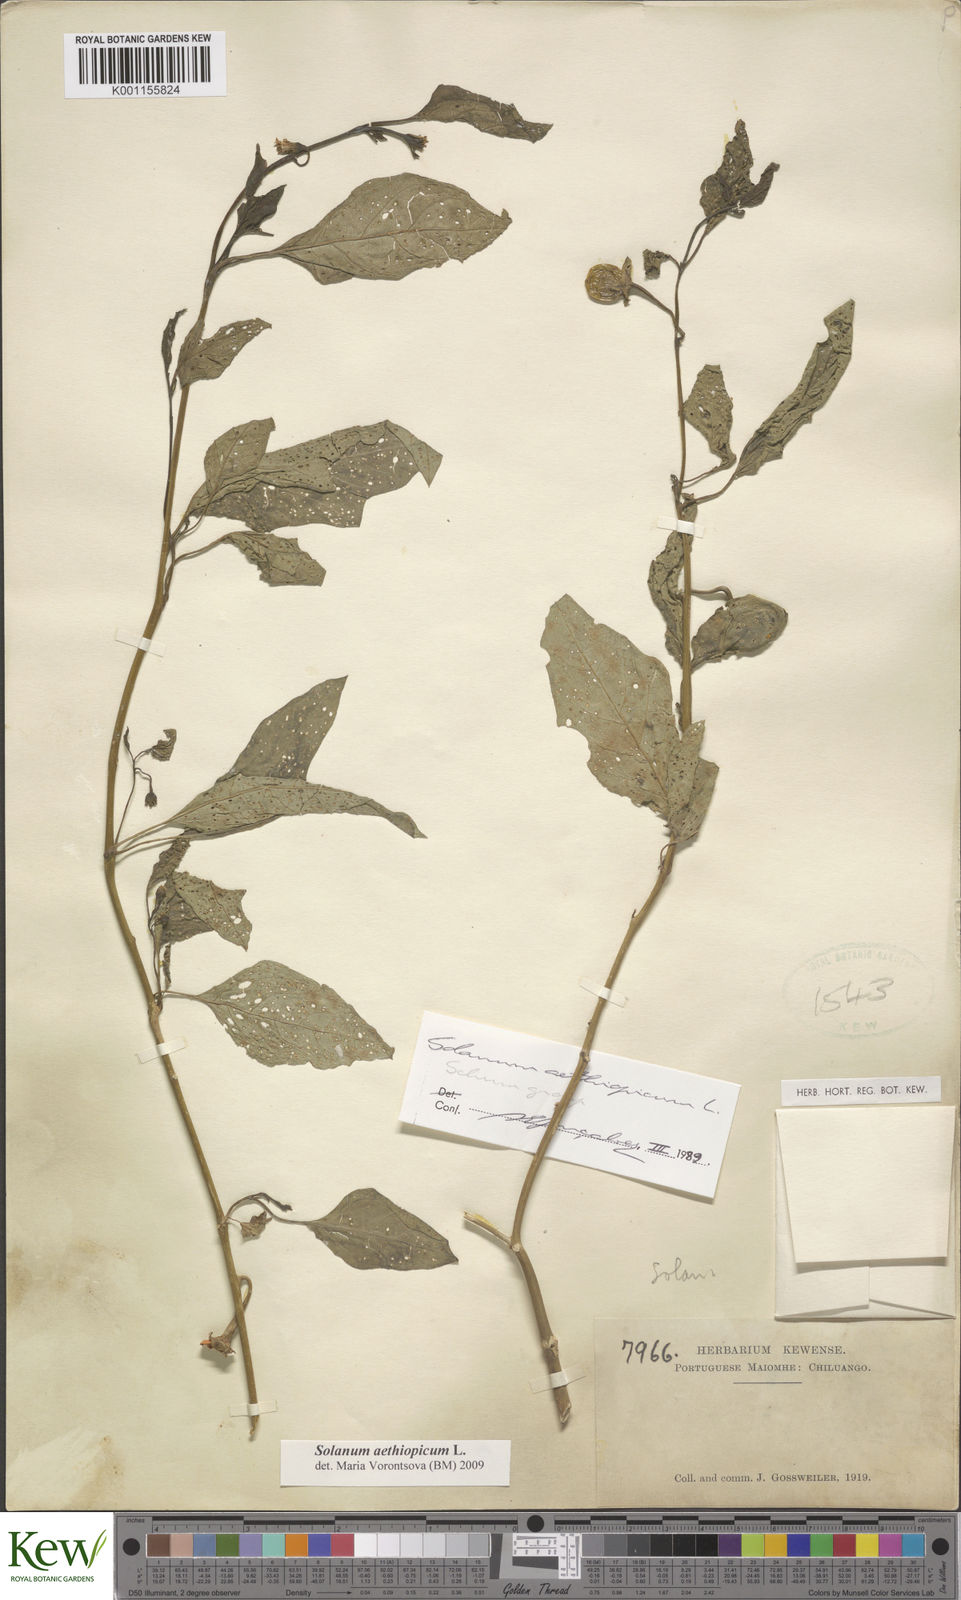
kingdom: Plantae
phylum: Tracheophyta
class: Magnoliopsida
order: Solanales
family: Solanaceae
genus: Solanum
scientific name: Solanum aethiopicum
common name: Gilo
